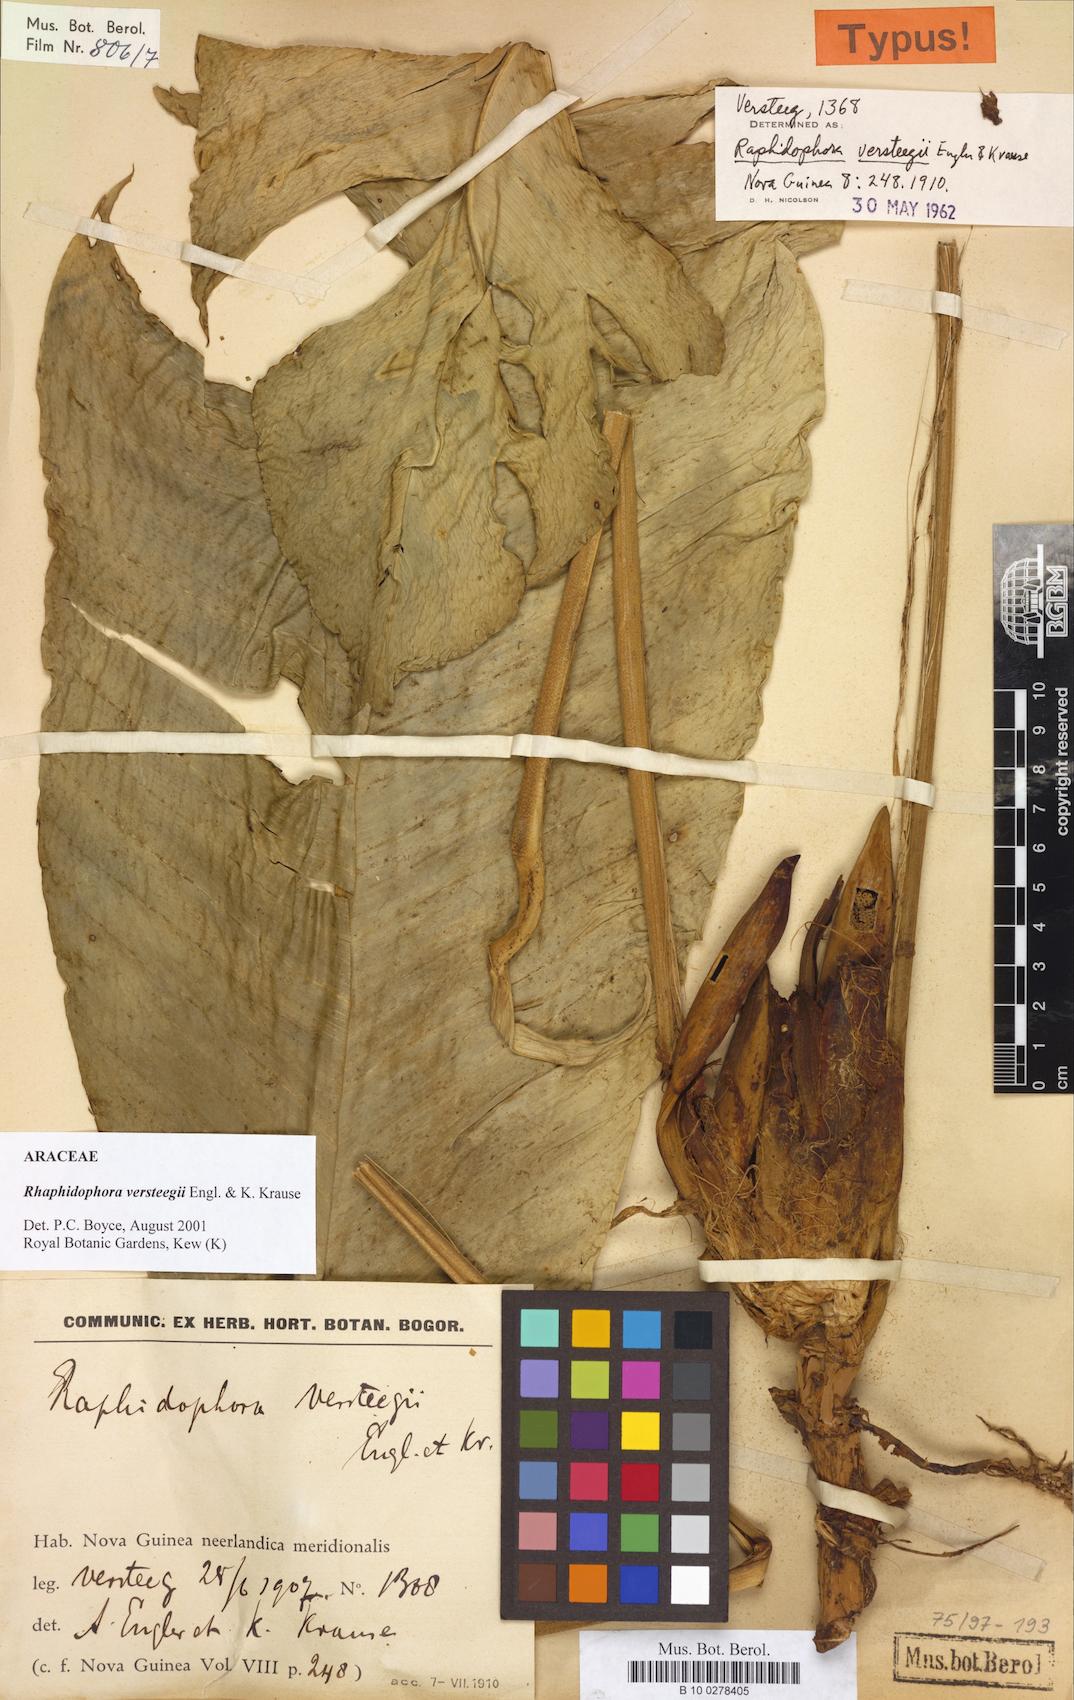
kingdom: Plantae
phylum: Tracheophyta
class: Liliopsida
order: Alismatales
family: Araceae
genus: Rhaphidophora
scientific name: Rhaphidophora versteegii
